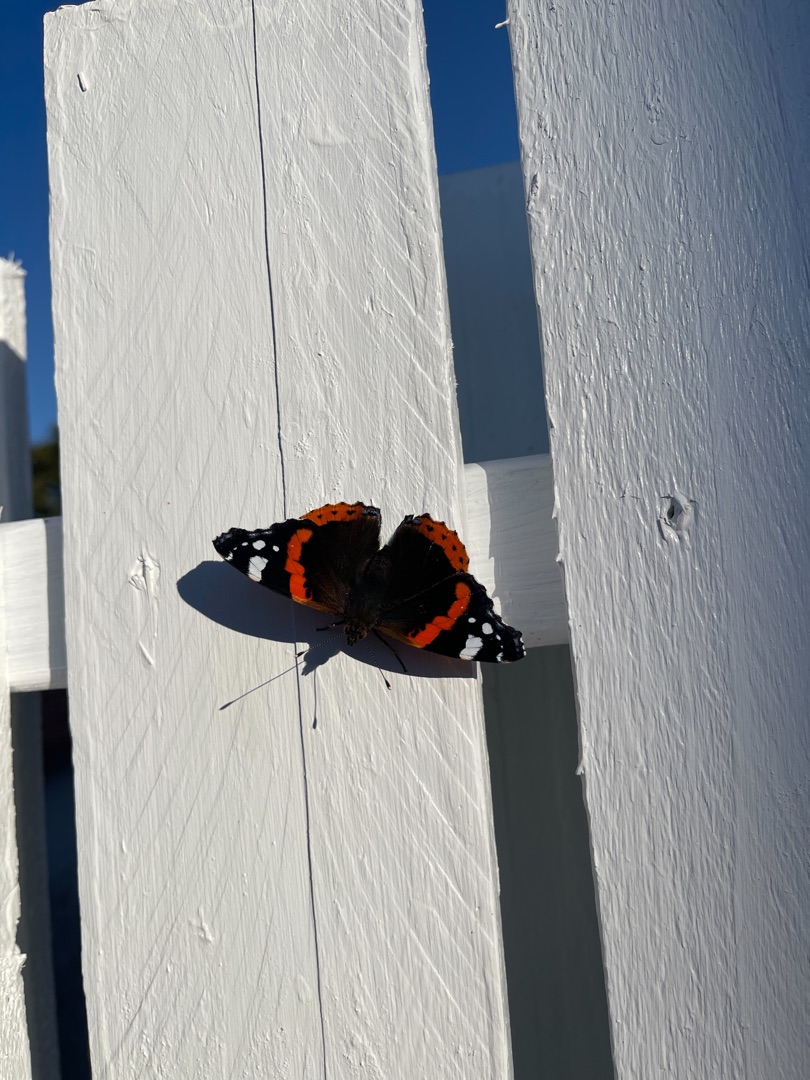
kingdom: Animalia
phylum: Arthropoda
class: Insecta
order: Lepidoptera
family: Nymphalidae
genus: Vanessa
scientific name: Vanessa atalanta
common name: Admiral
